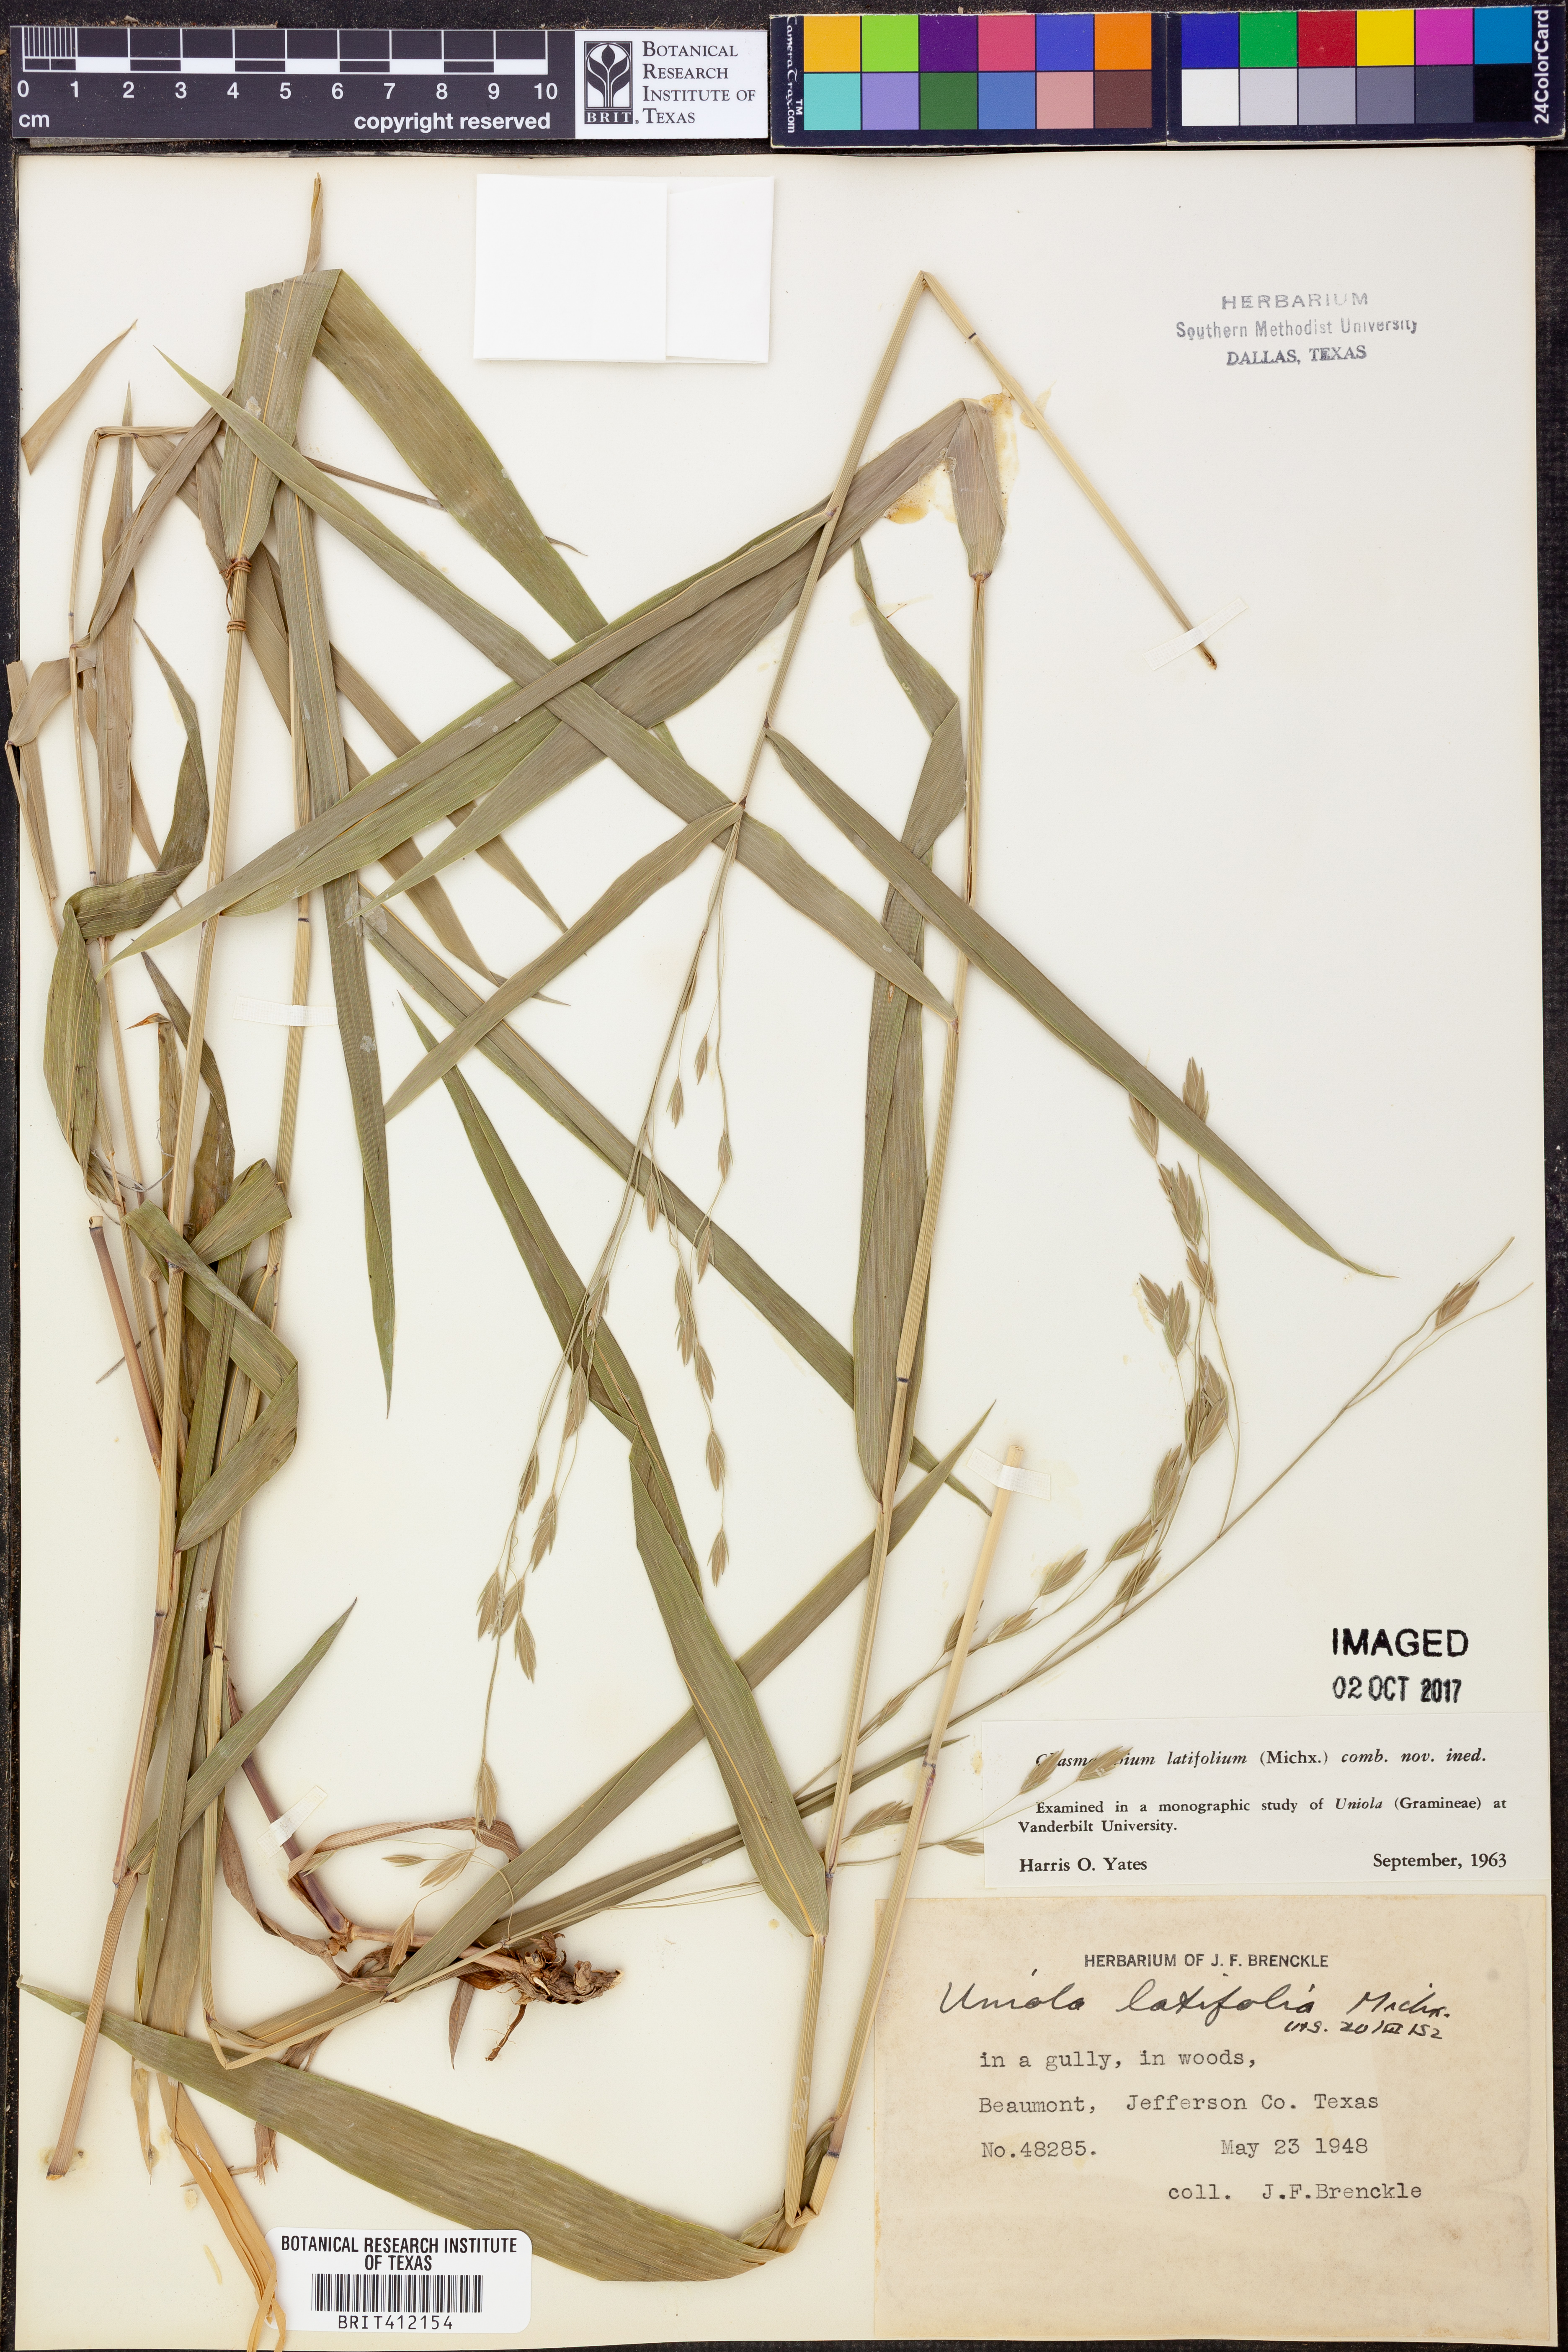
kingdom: Plantae
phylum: Tracheophyta
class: Liliopsida
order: Poales
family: Poaceae
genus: Chasmanthium
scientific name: Chasmanthium latifolium
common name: Broad-leaved chasmanthium
